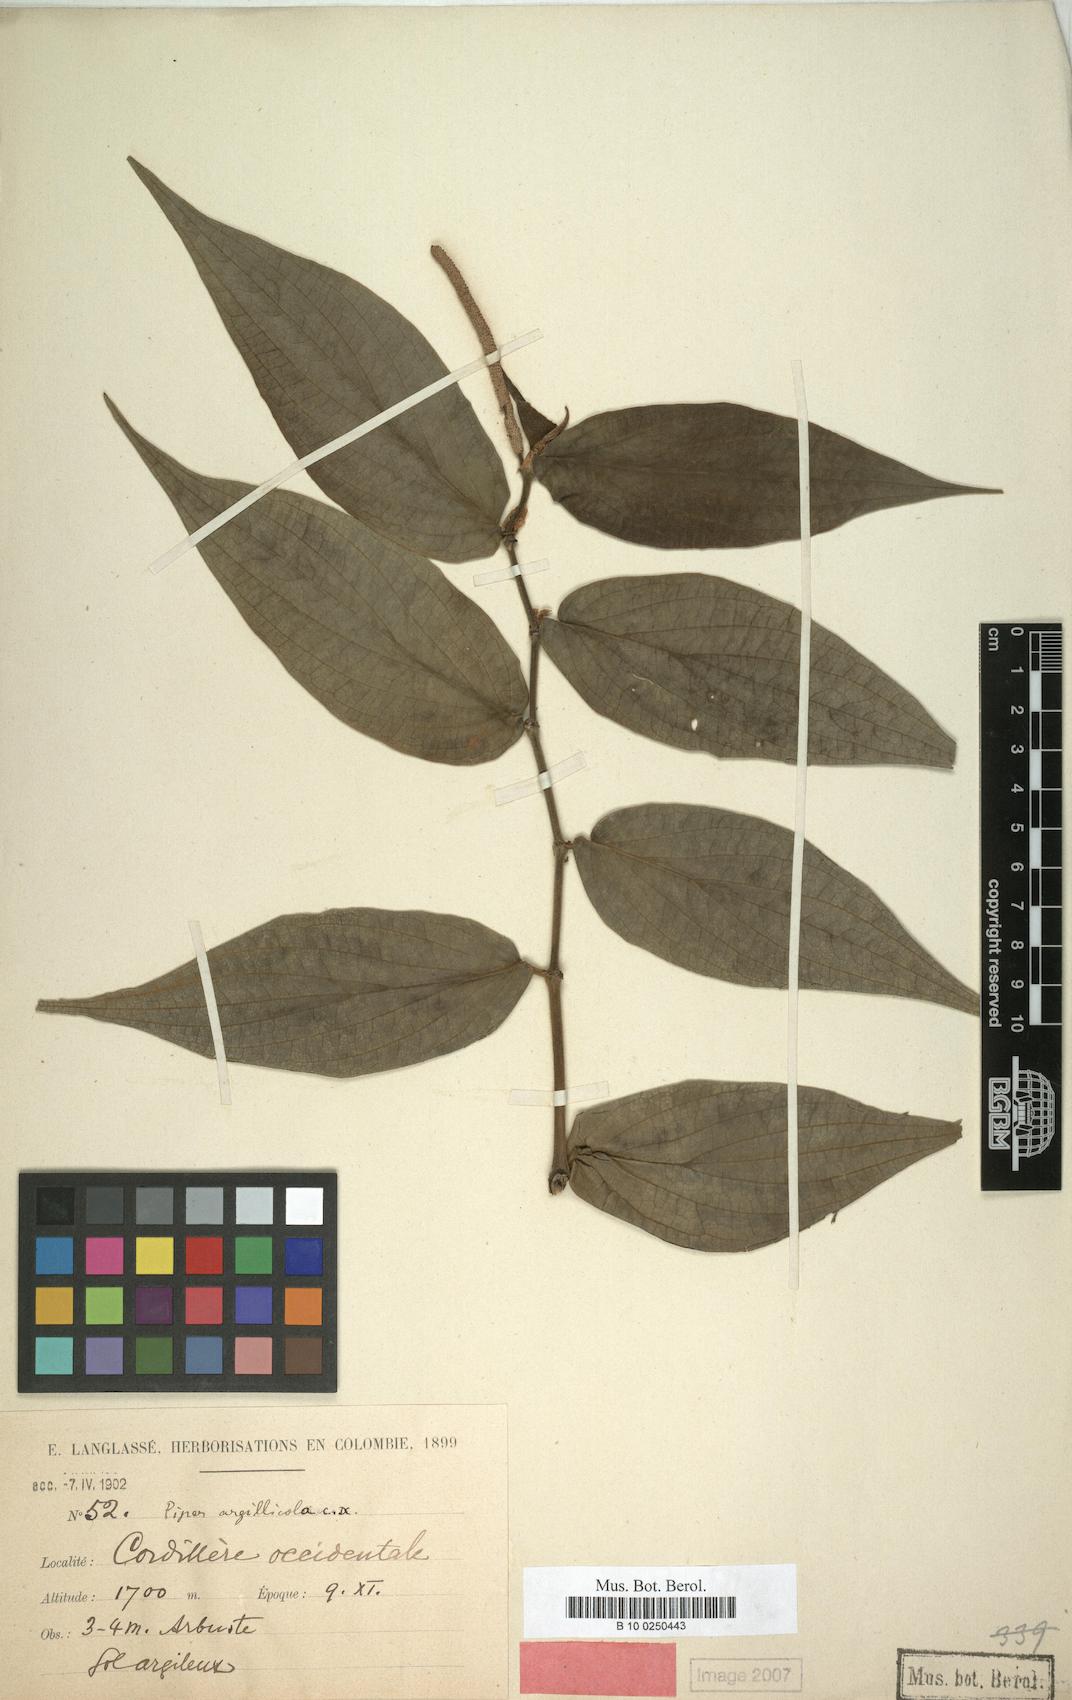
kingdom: Plantae
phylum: Tracheophyta
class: Magnoliopsida
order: Piperales
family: Piperaceae
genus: Piper
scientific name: Piper subflavum
